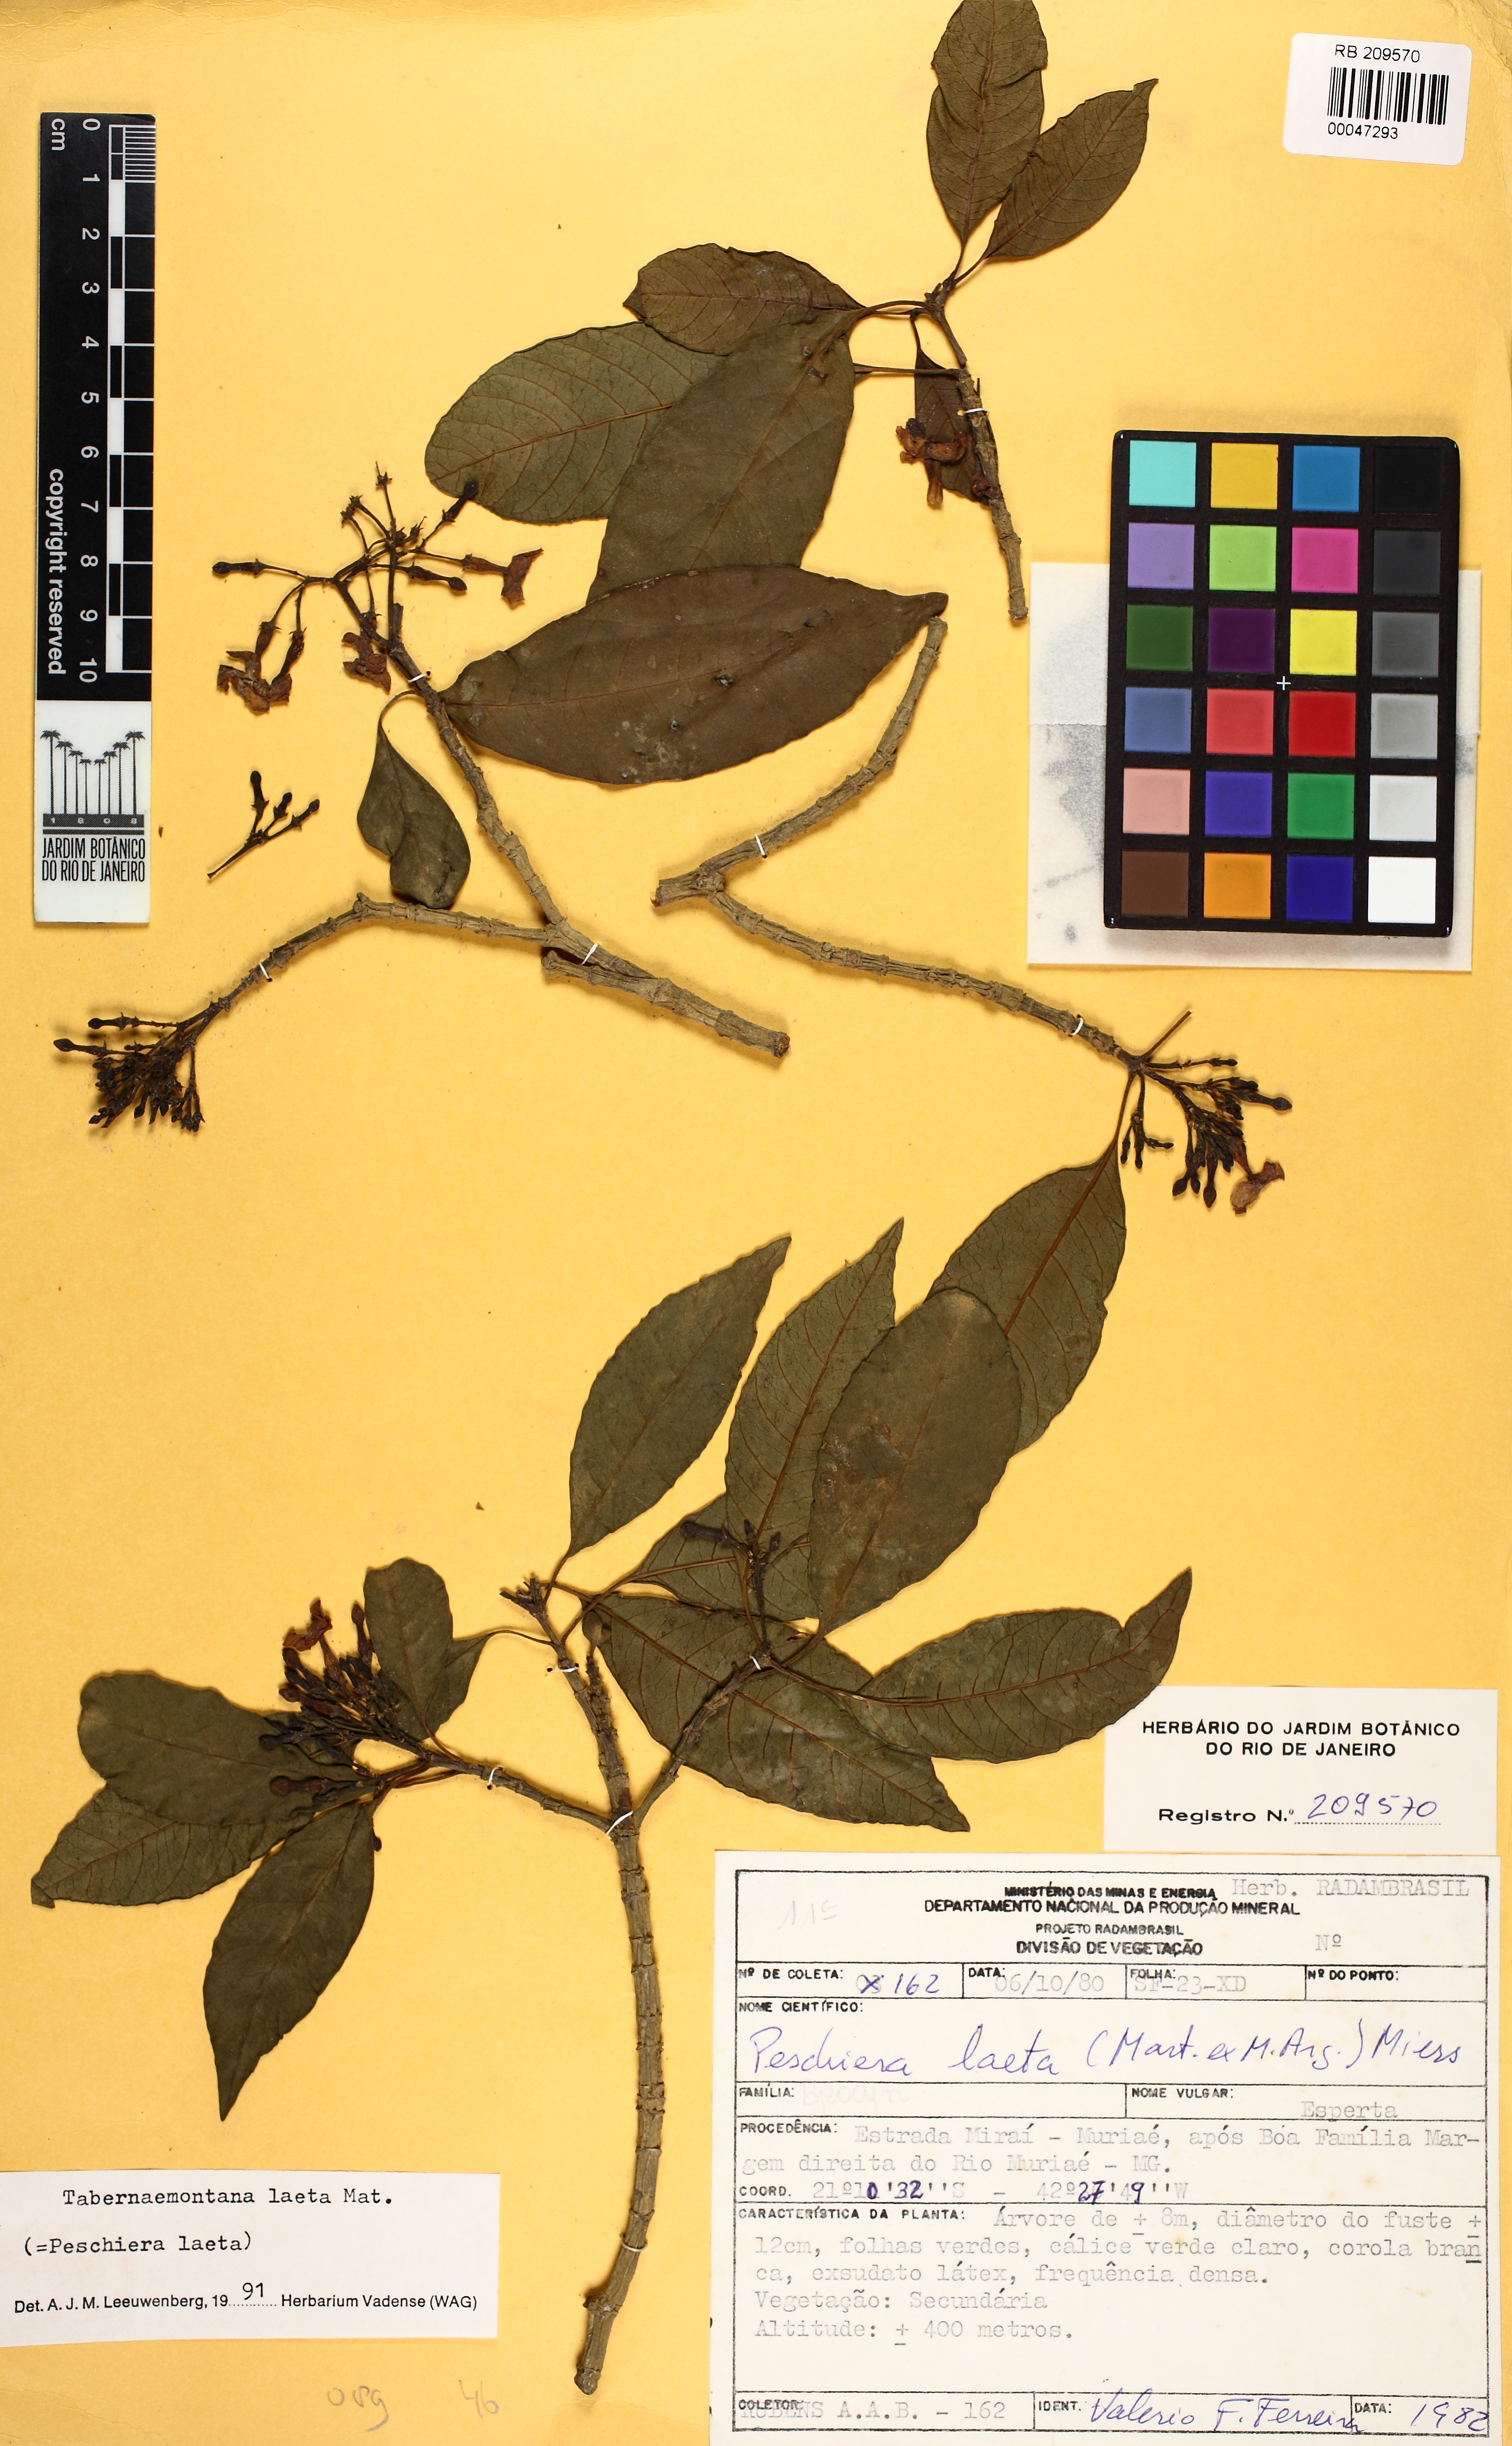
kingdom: Plantae
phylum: Tracheophyta
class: Magnoliopsida
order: Gentianales
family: Apocynaceae
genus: Tabernaemontana
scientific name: Tabernaemontana laeta
